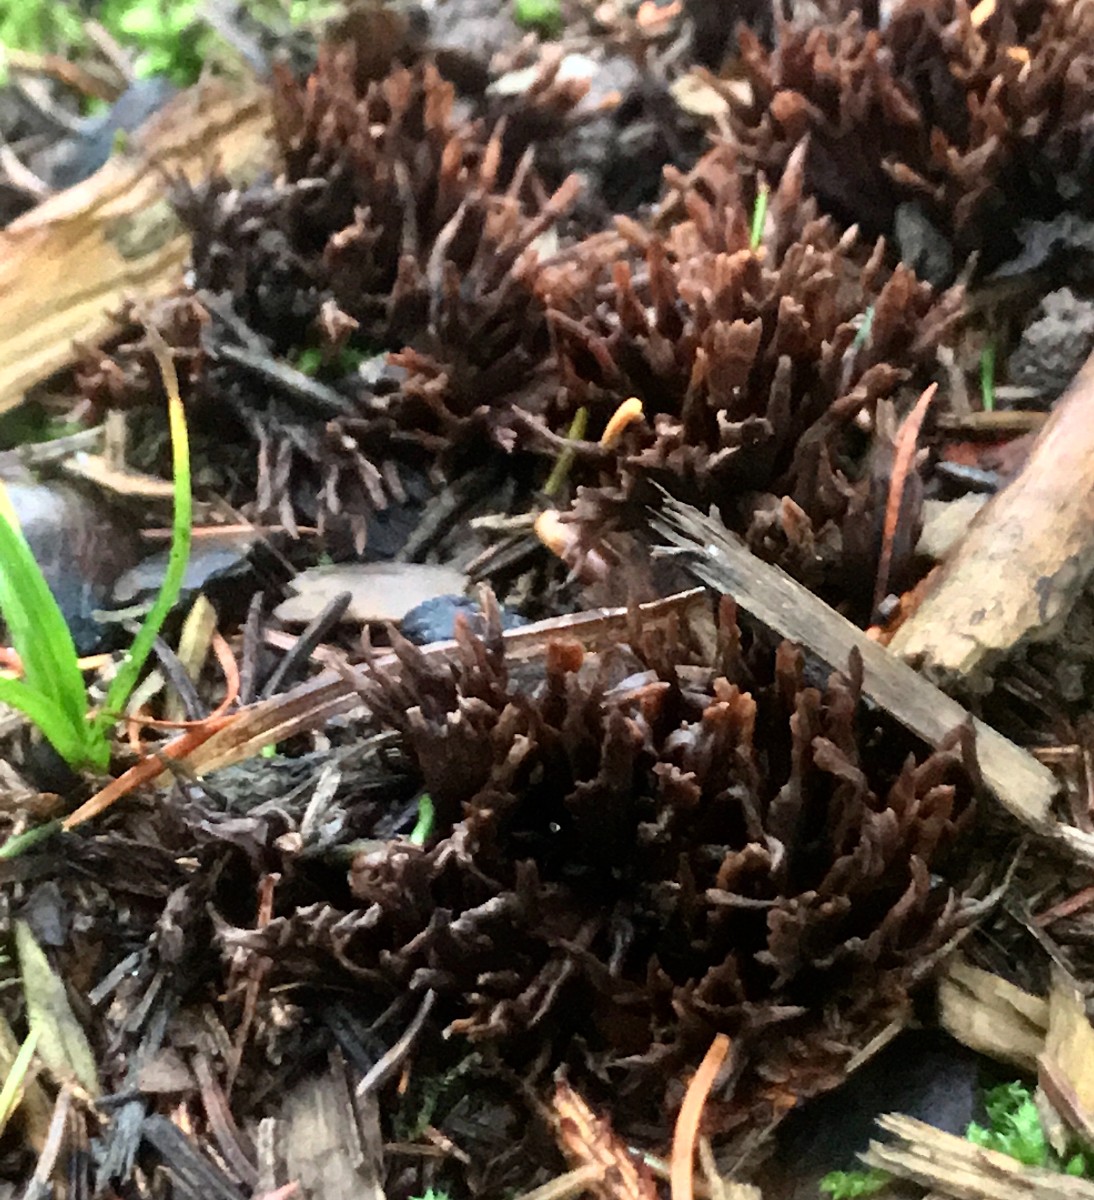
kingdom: Fungi
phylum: Basidiomycota
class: Agaricomycetes
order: Thelephorales
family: Thelephoraceae
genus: Thelephora
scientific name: Thelephora palmata
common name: grenet frynsesvamp
